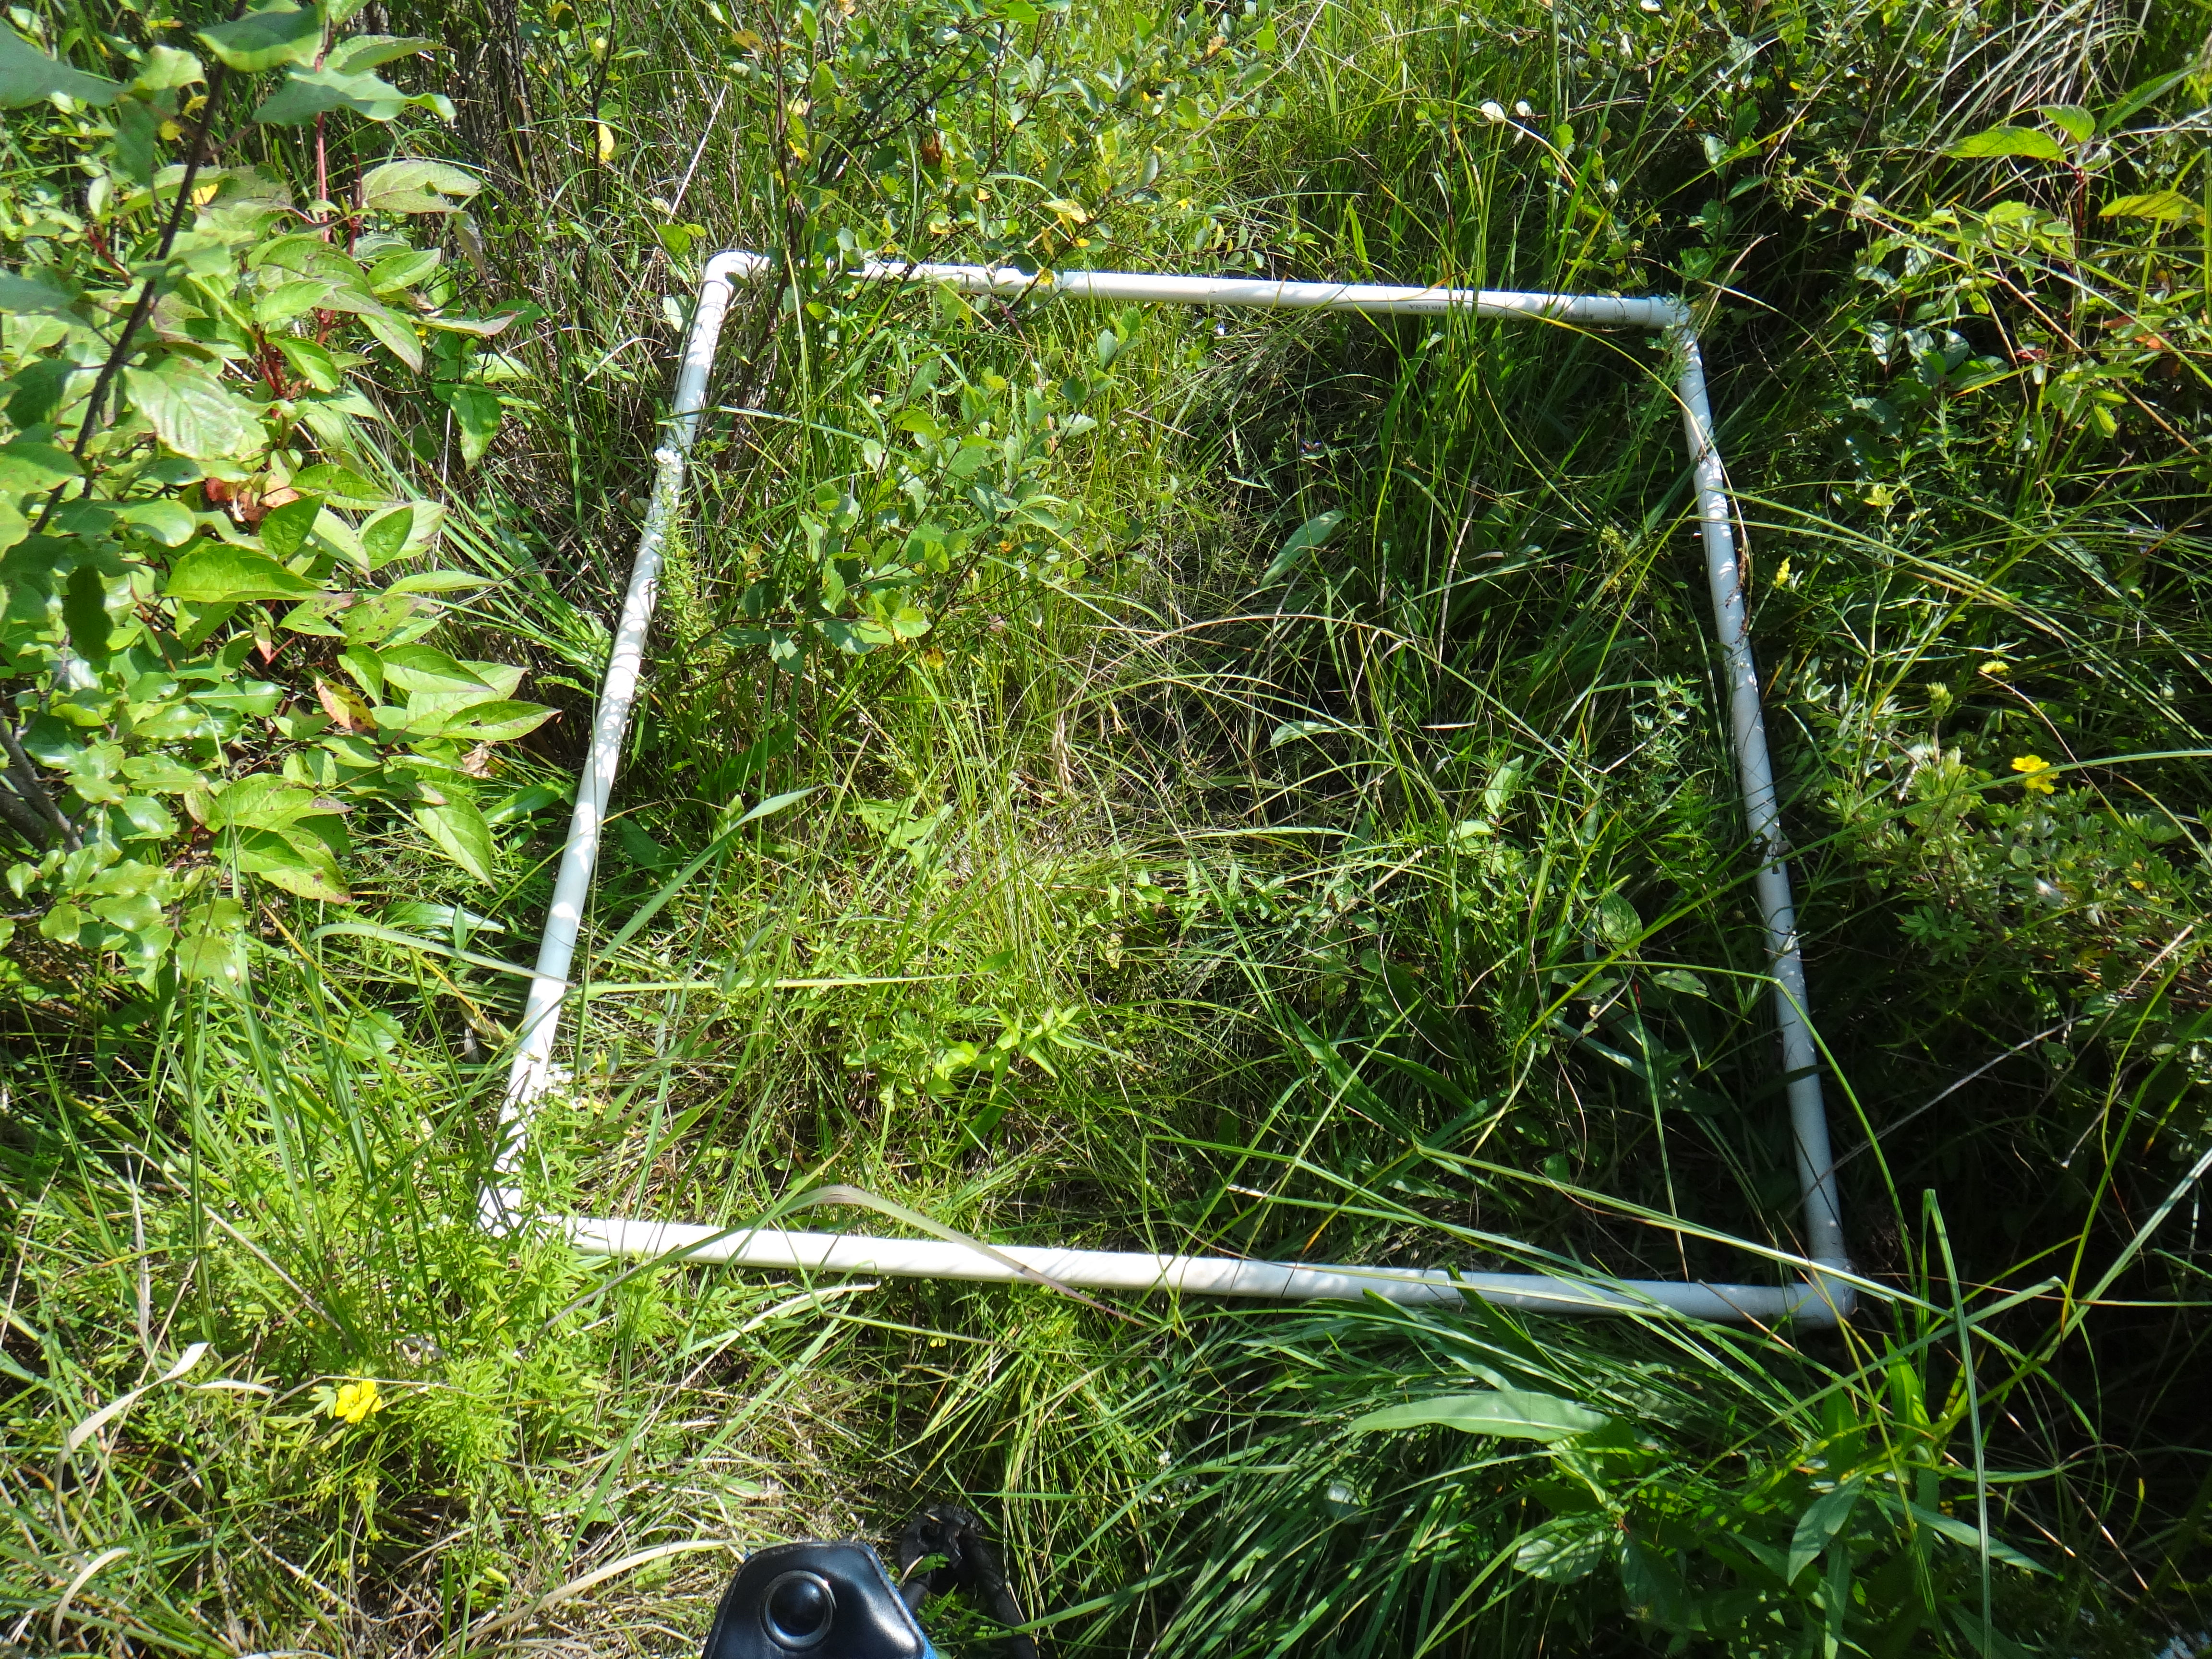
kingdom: Plantae
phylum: Tracheophyta
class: Magnoliopsida
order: Asterales
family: Asteraceae
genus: Symphyotrichum
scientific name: Symphyotrichum
